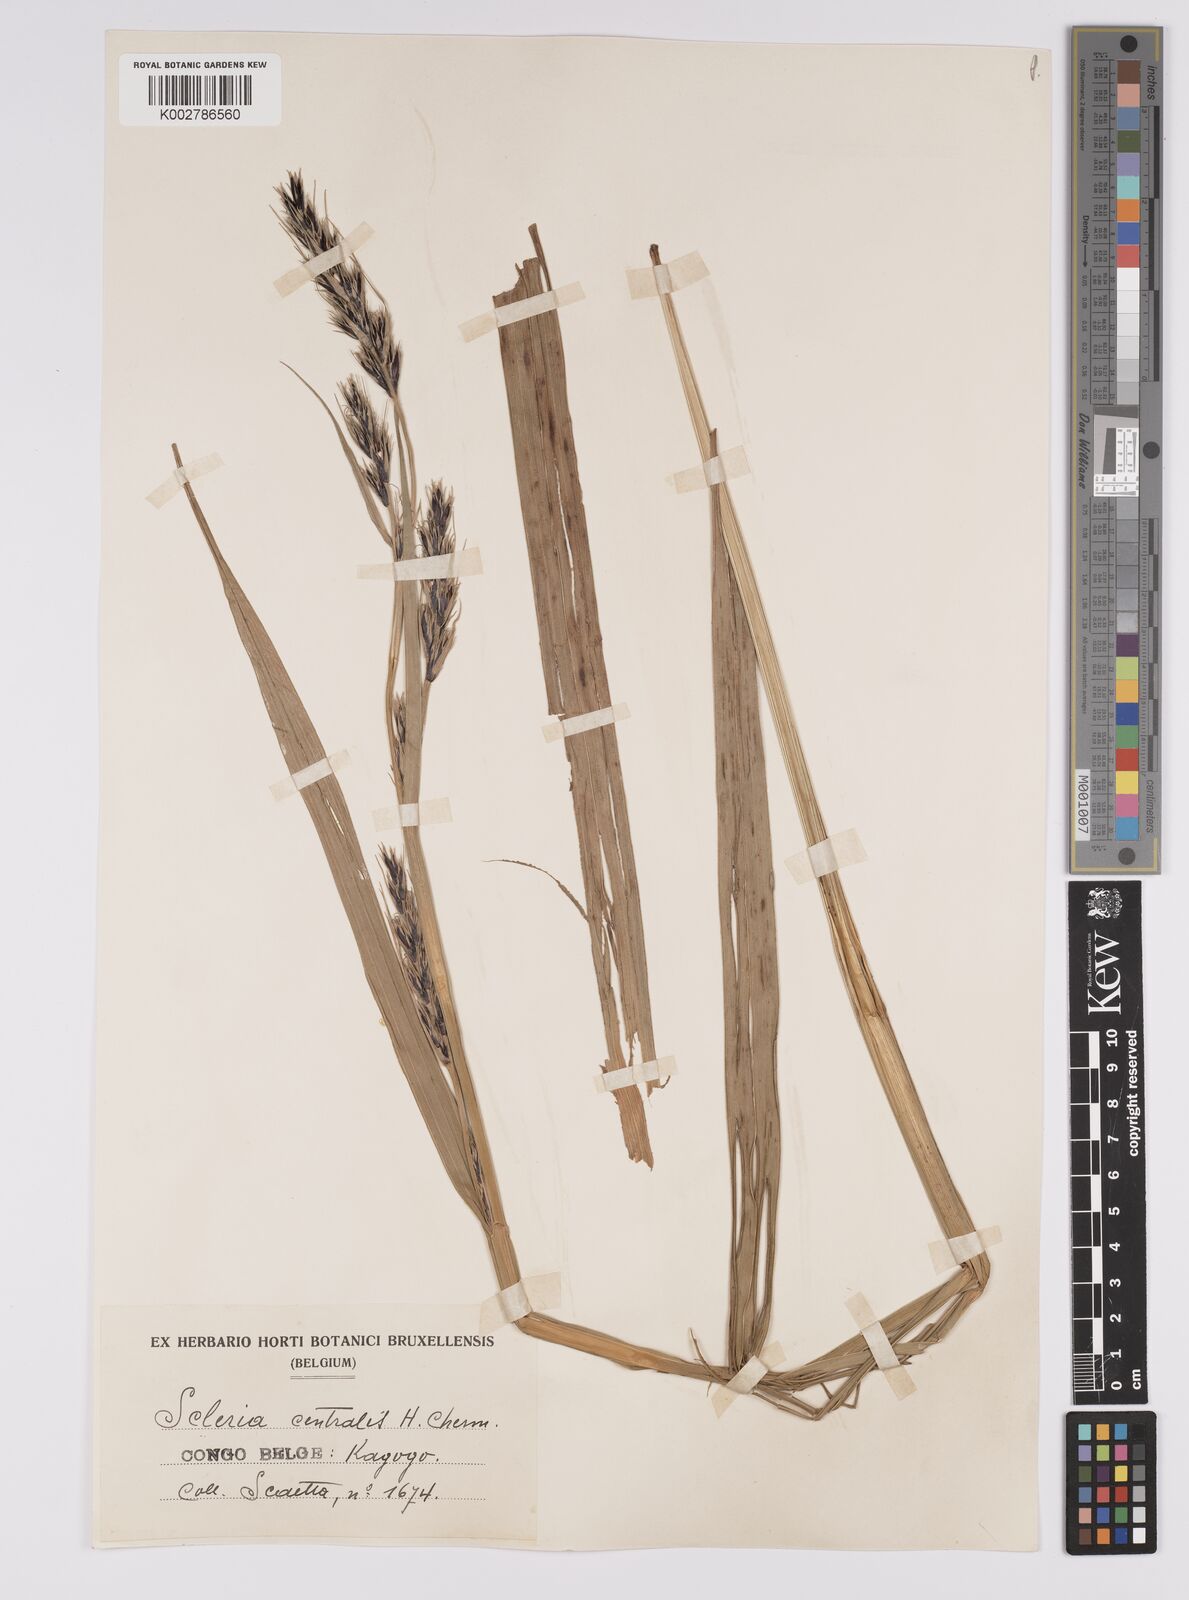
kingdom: Plantae
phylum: Tracheophyta
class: Liliopsida
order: Poales
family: Cyperaceae
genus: Scleria
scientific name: Scleria melanomphala
